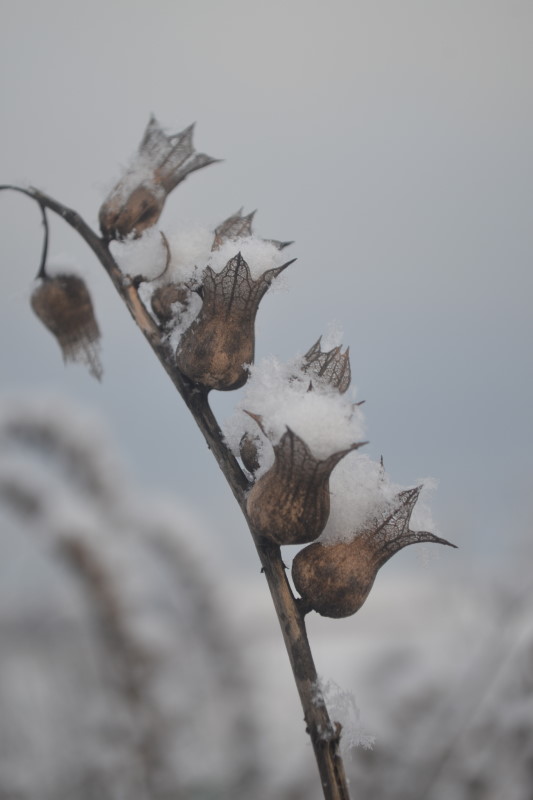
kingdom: Plantae
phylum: Tracheophyta
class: Magnoliopsida
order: Solanales
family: Solanaceae
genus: Hyoscyamus
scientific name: Hyoscyamus niger
